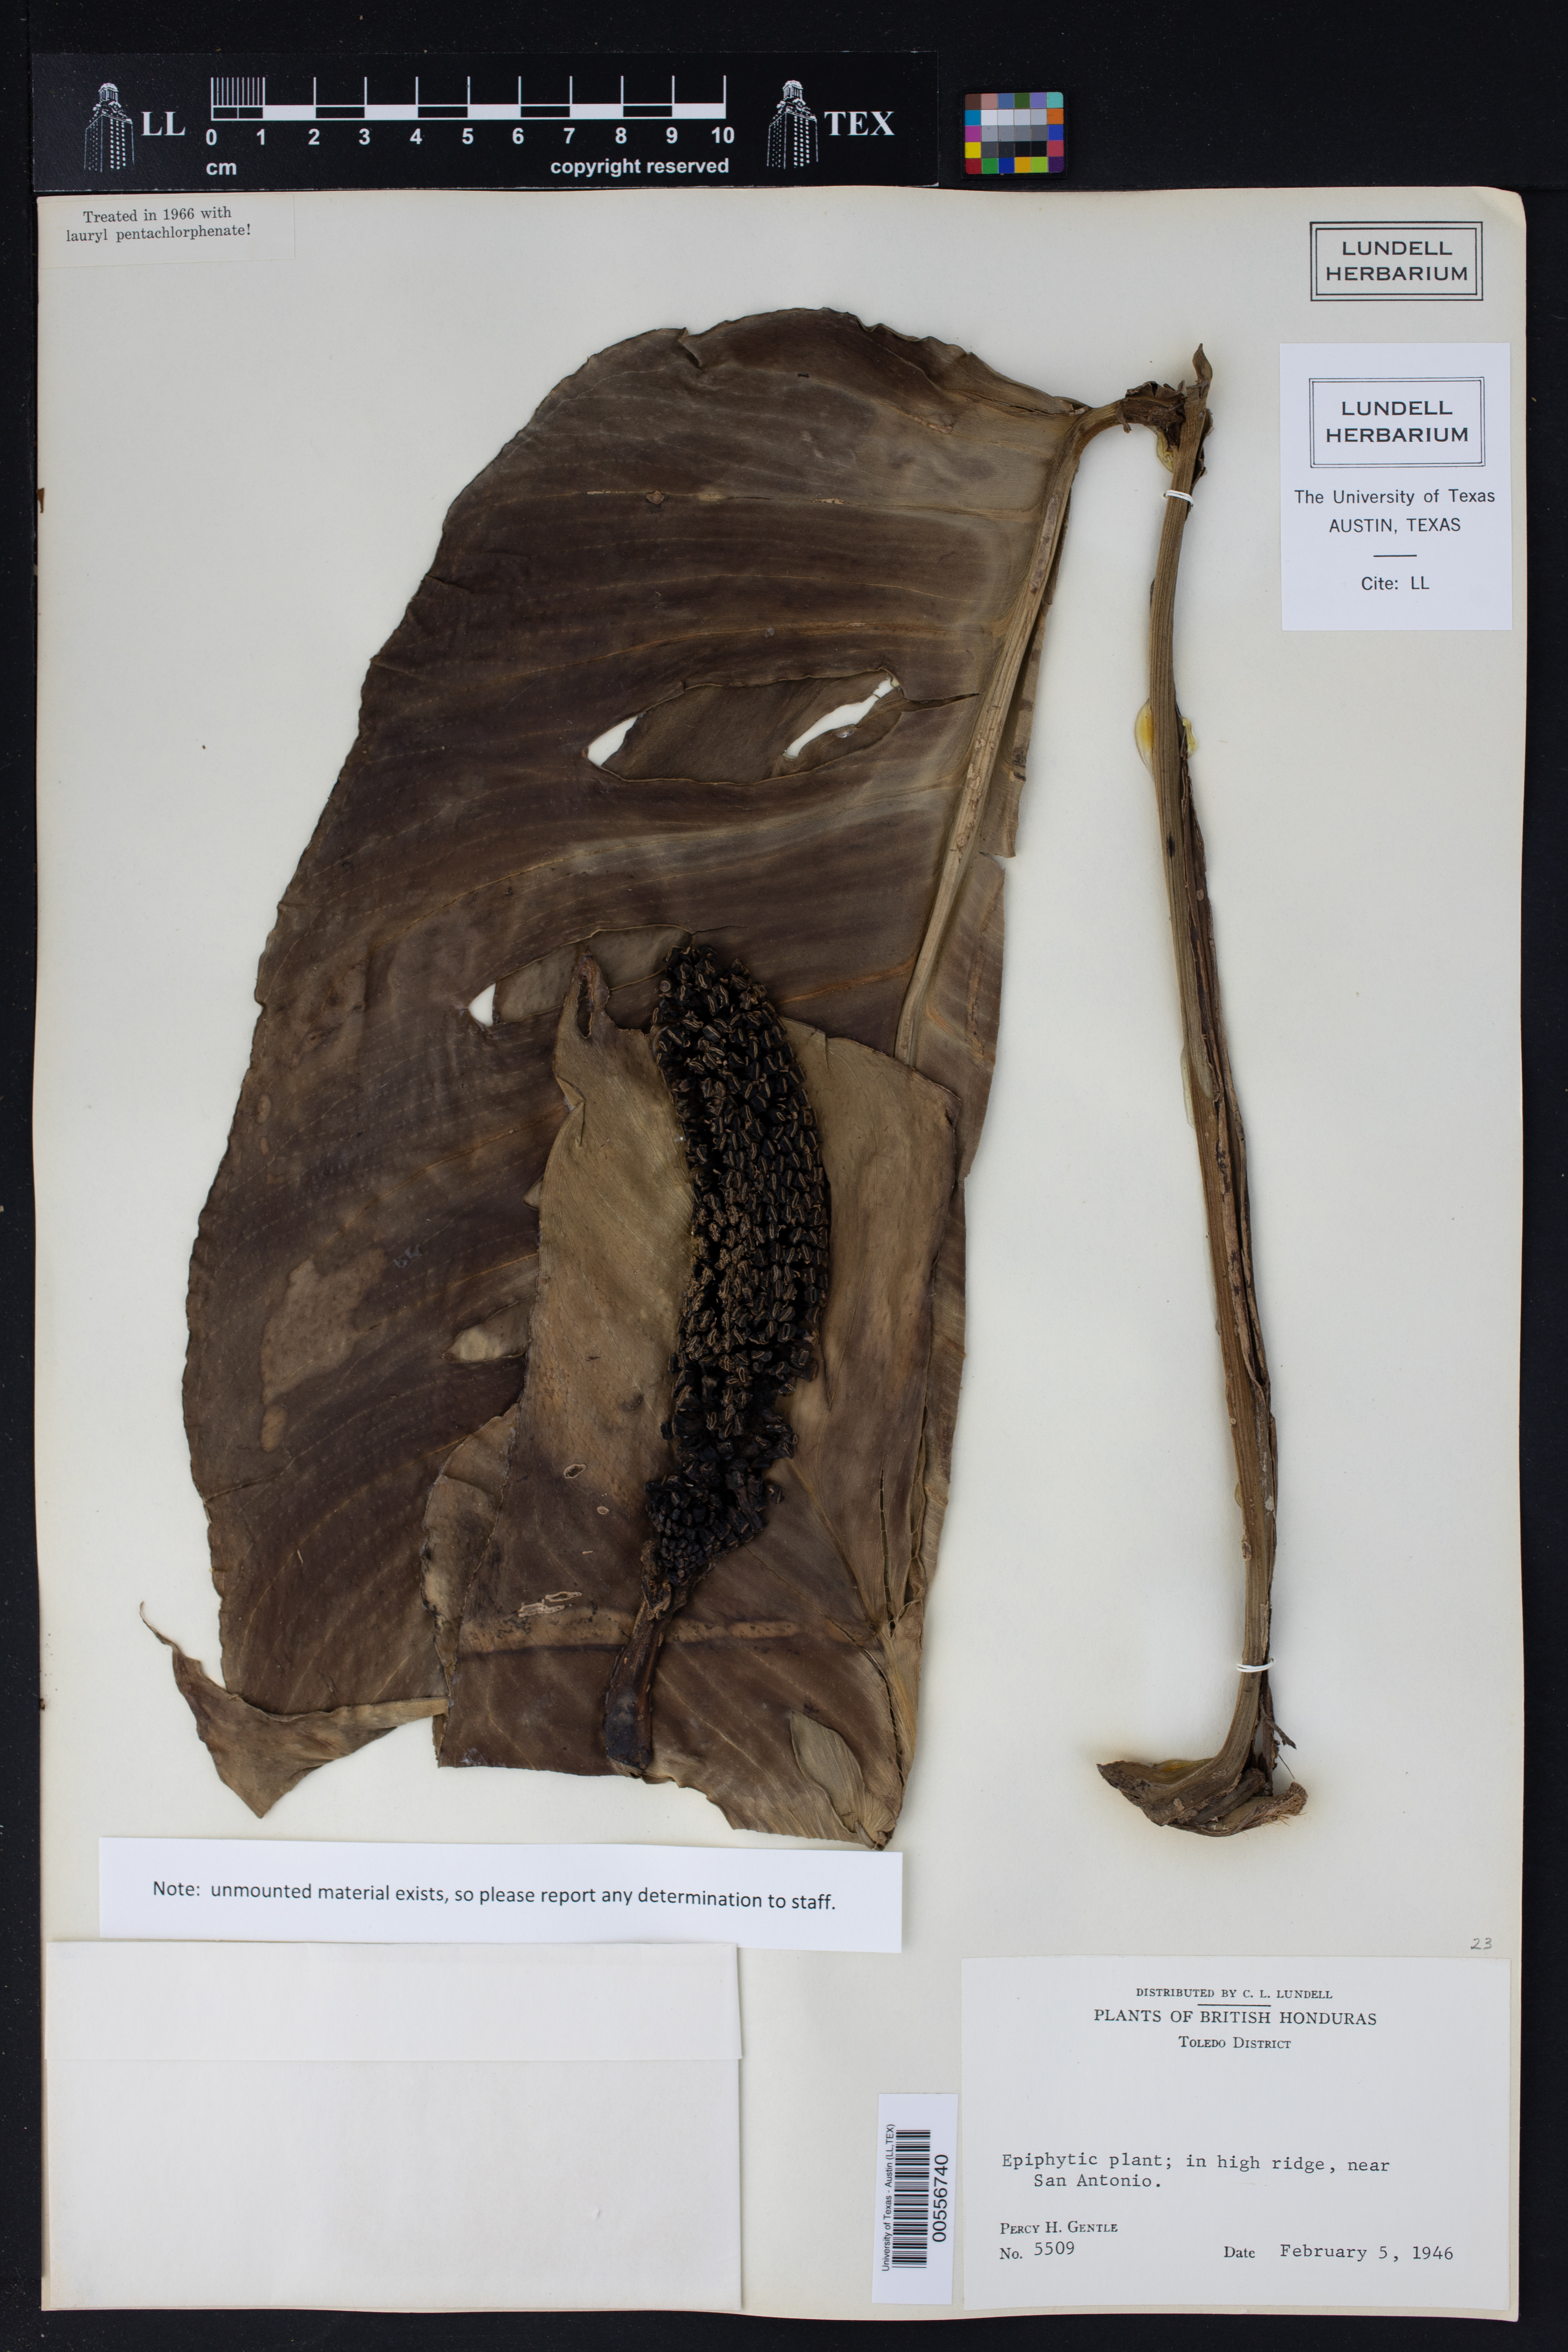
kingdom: Plantae
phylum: Tracheophyta
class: Liliopsida
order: Alismatales
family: Araceae
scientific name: Araceae
